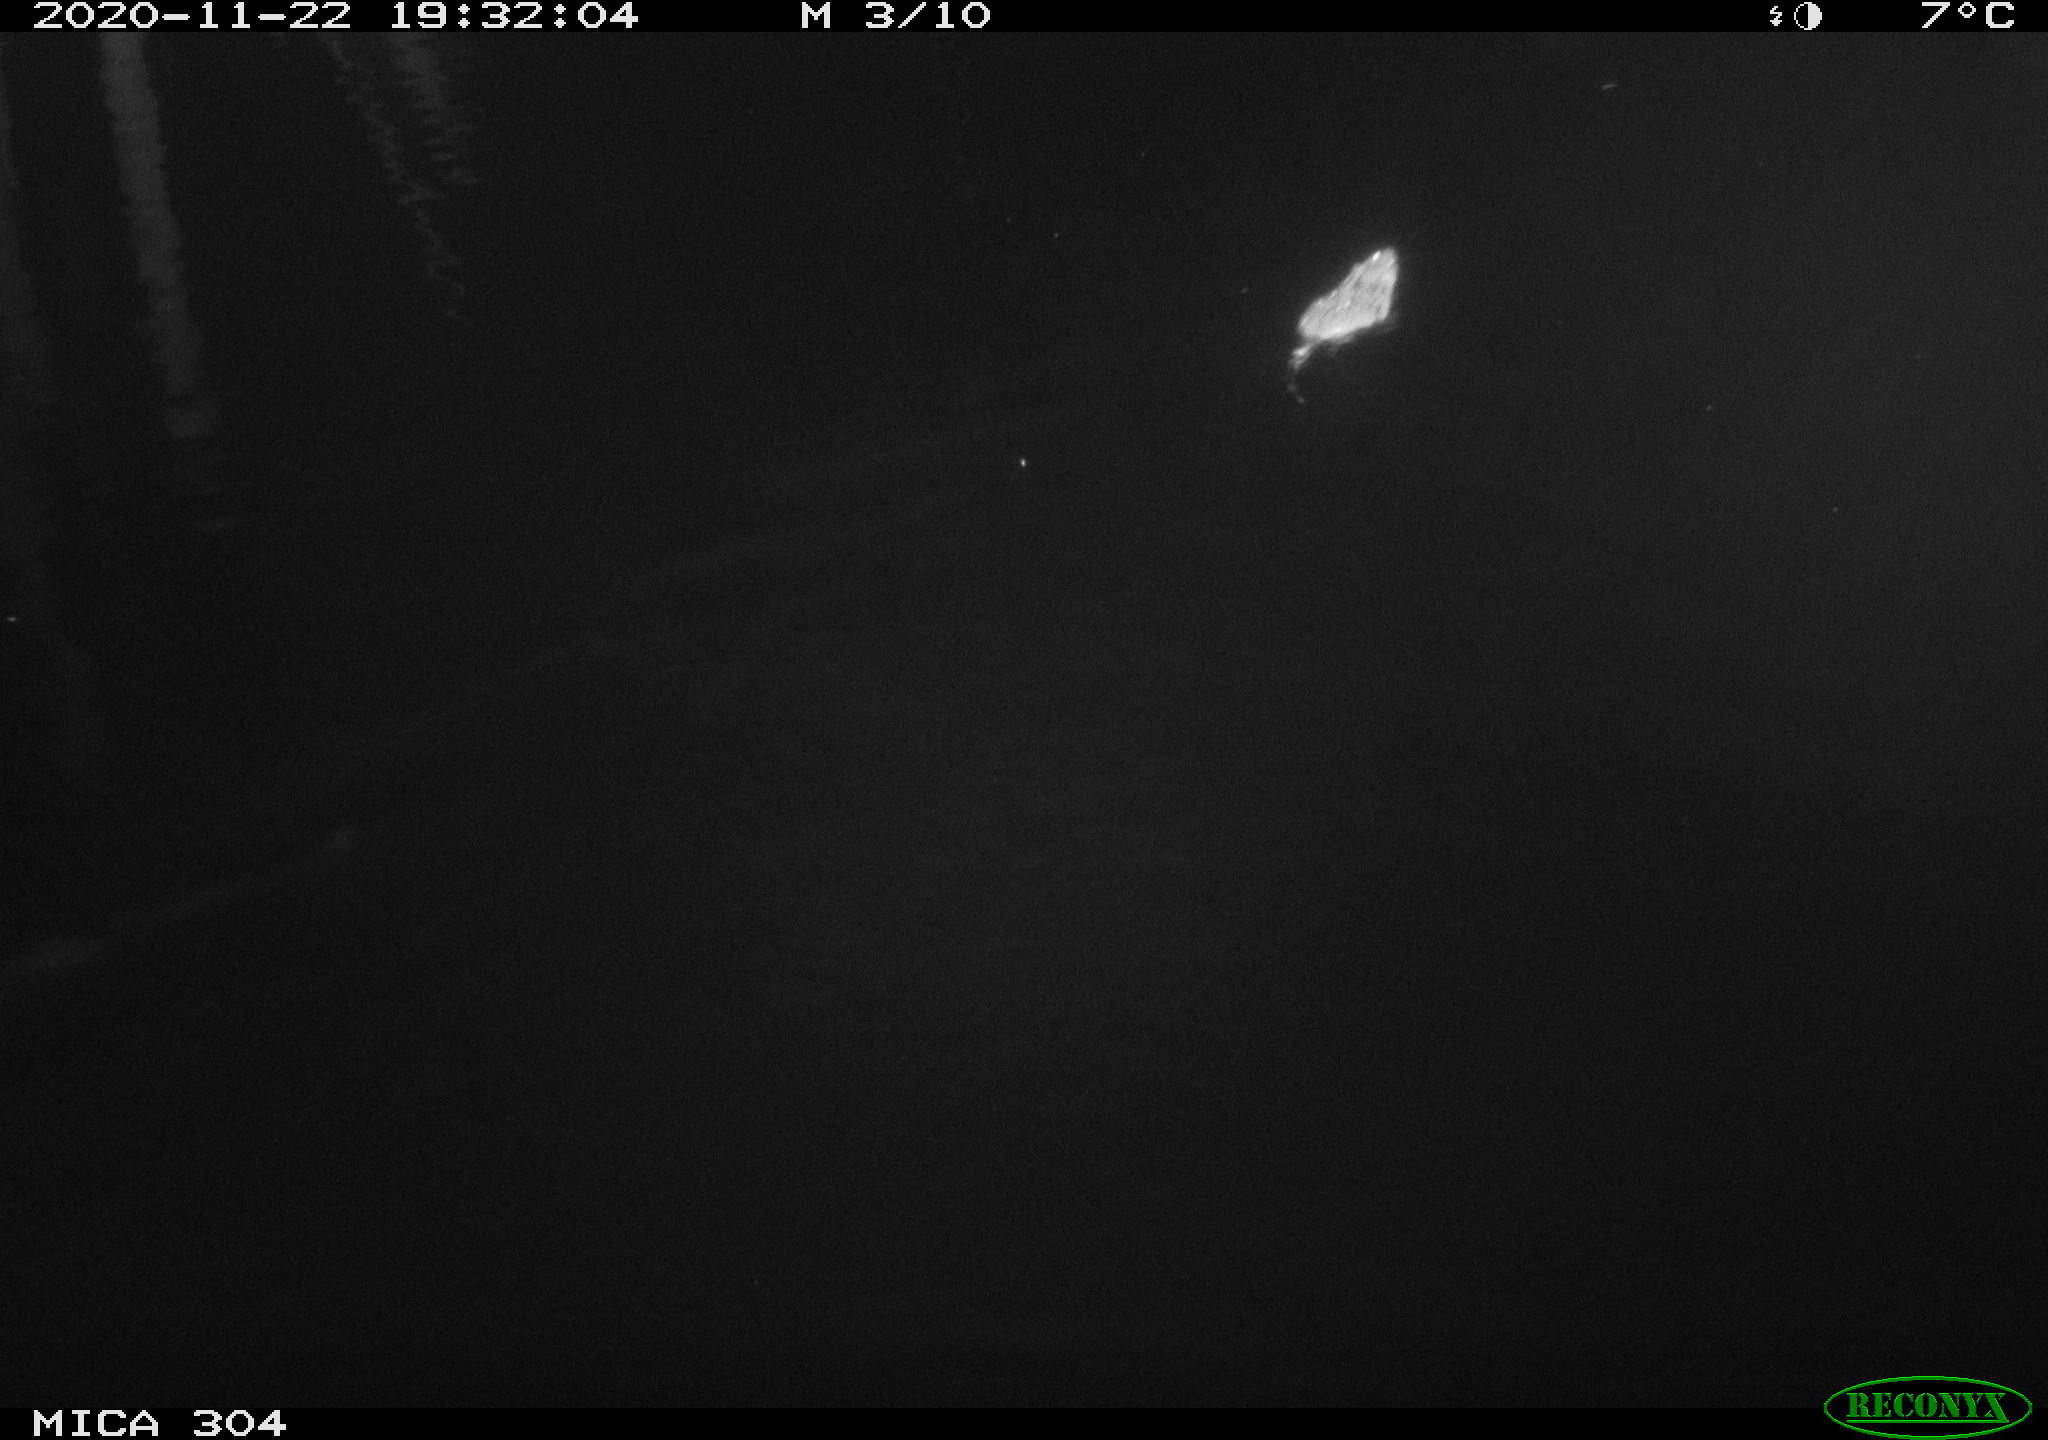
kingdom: Animalia
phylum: Chordata
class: Mammalia
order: Rodentia
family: Muridae
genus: Rattus
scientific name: Rattus norvegicus
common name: Brown rat
